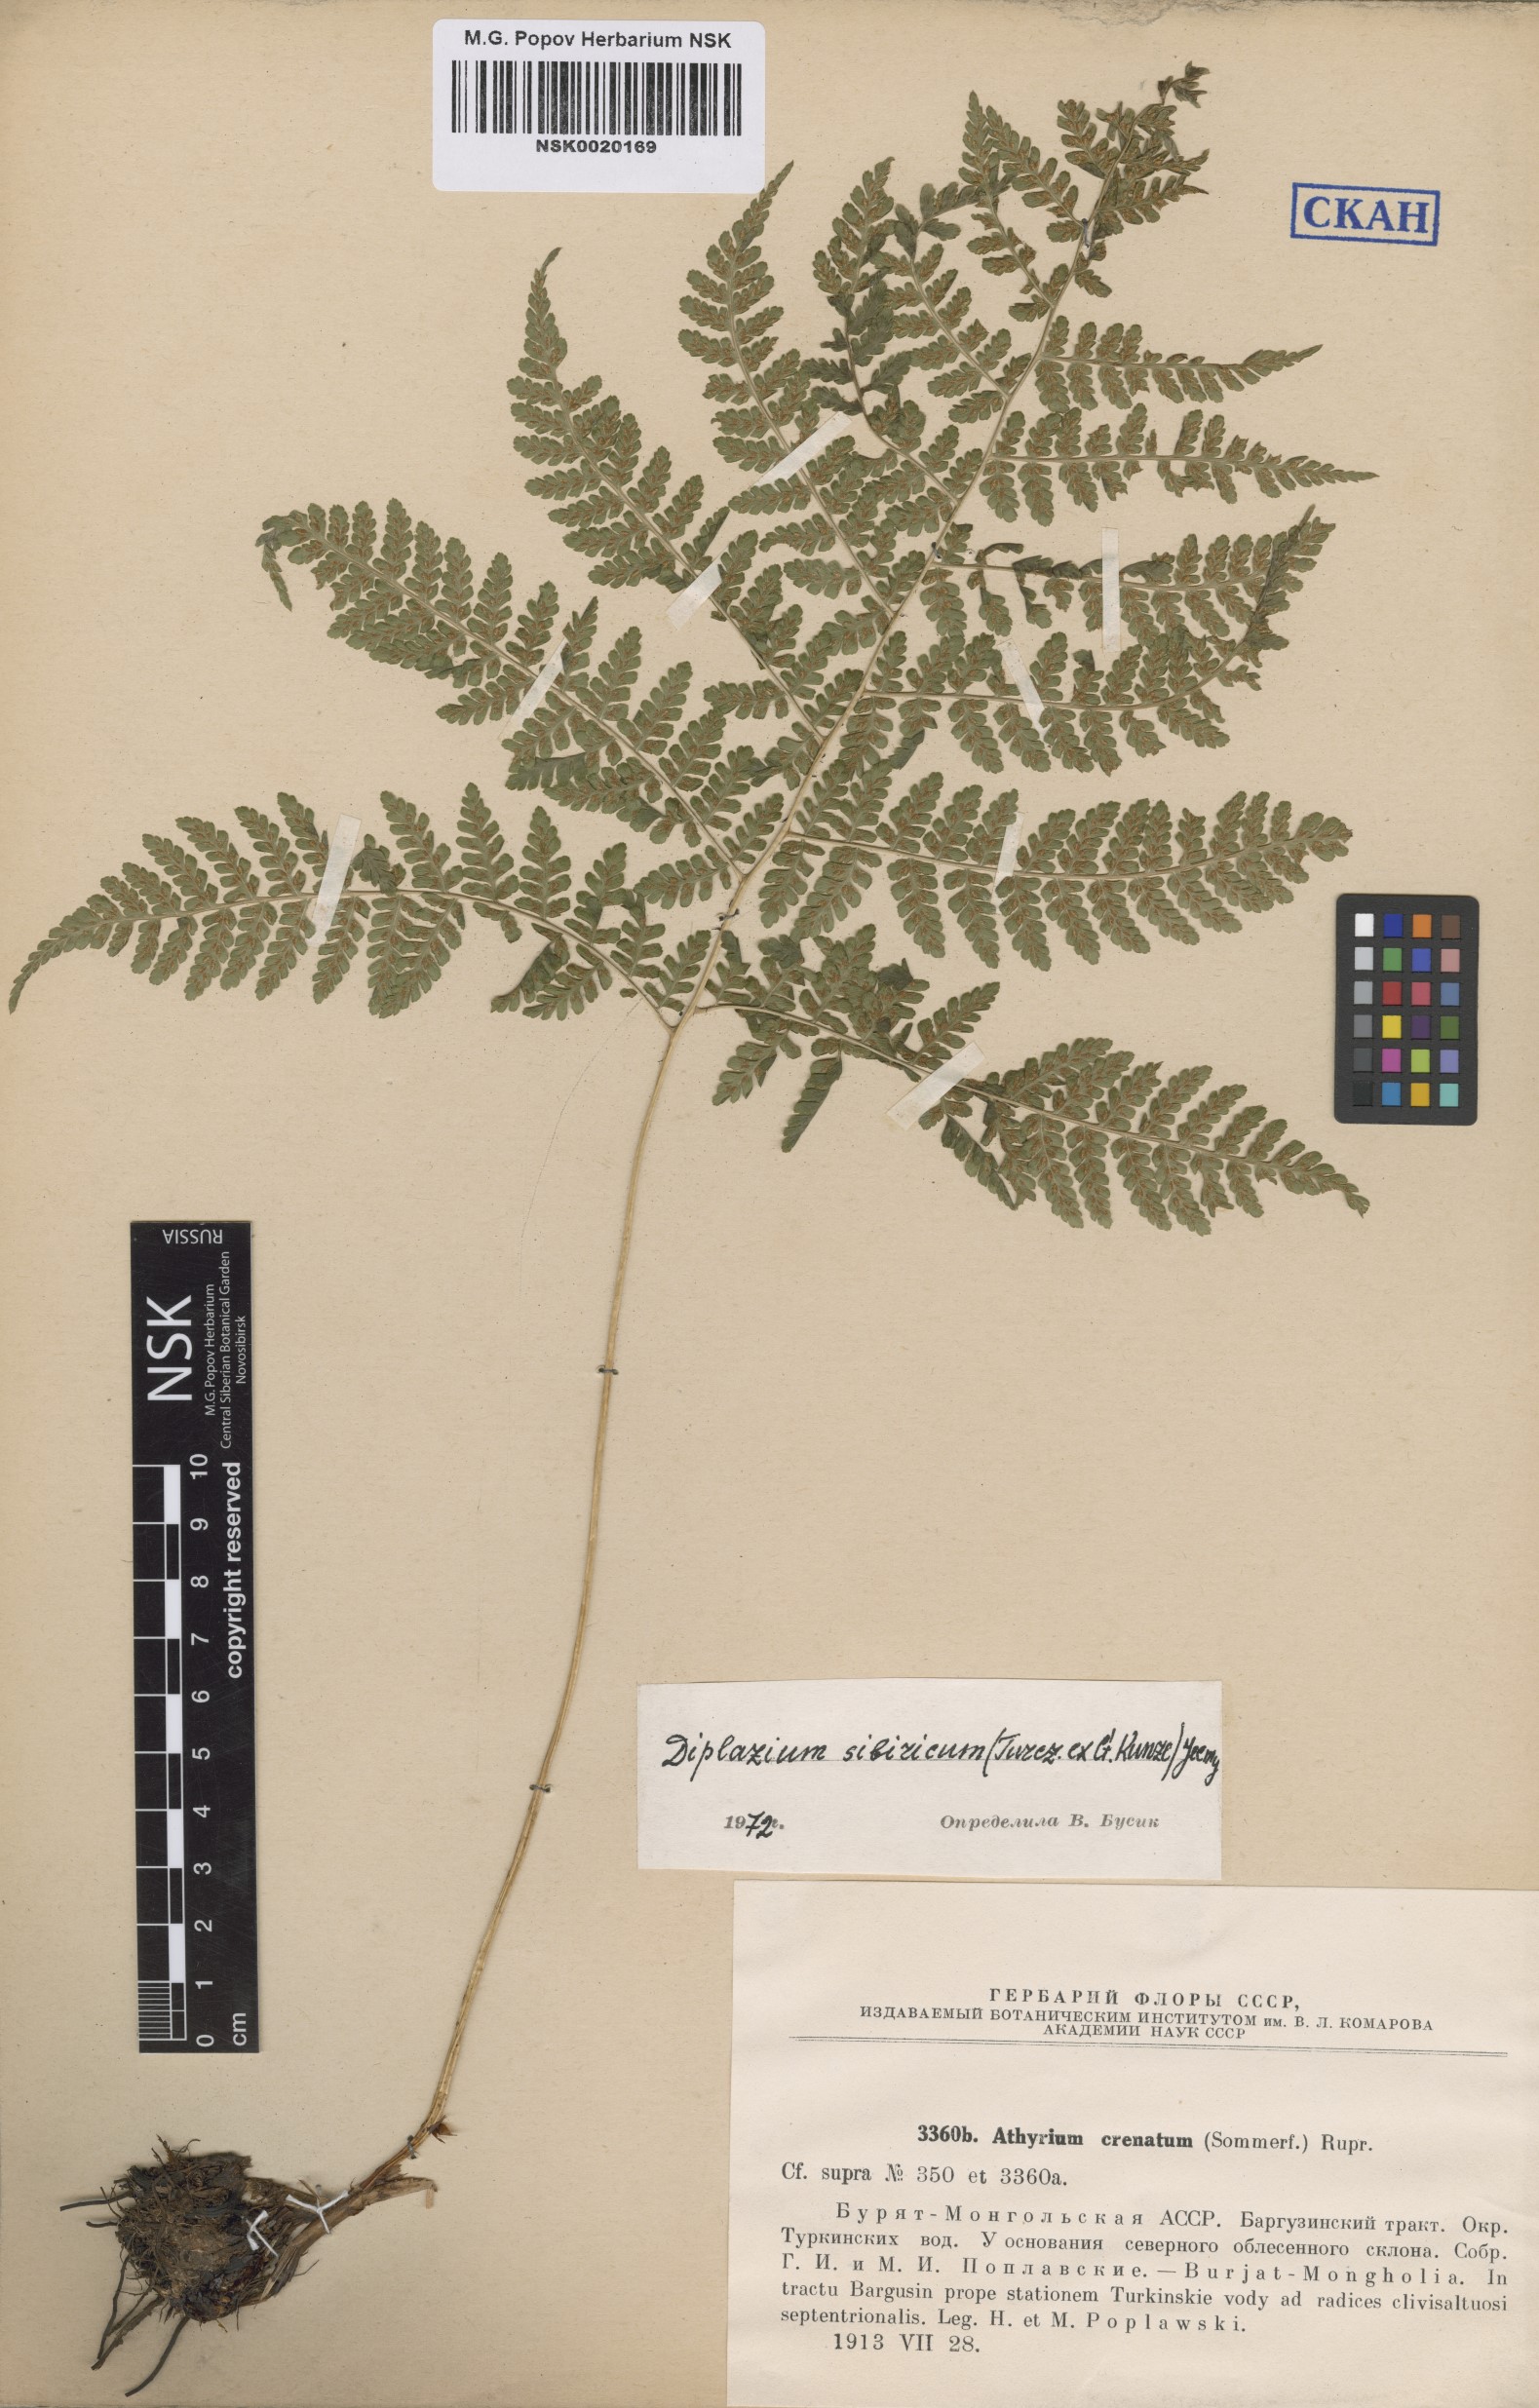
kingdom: Plantae
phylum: Tracheophyta
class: Polypodiopsida
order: Polypodiales
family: Athyriaceae
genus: Diplazium
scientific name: Diplazium sibiricum
